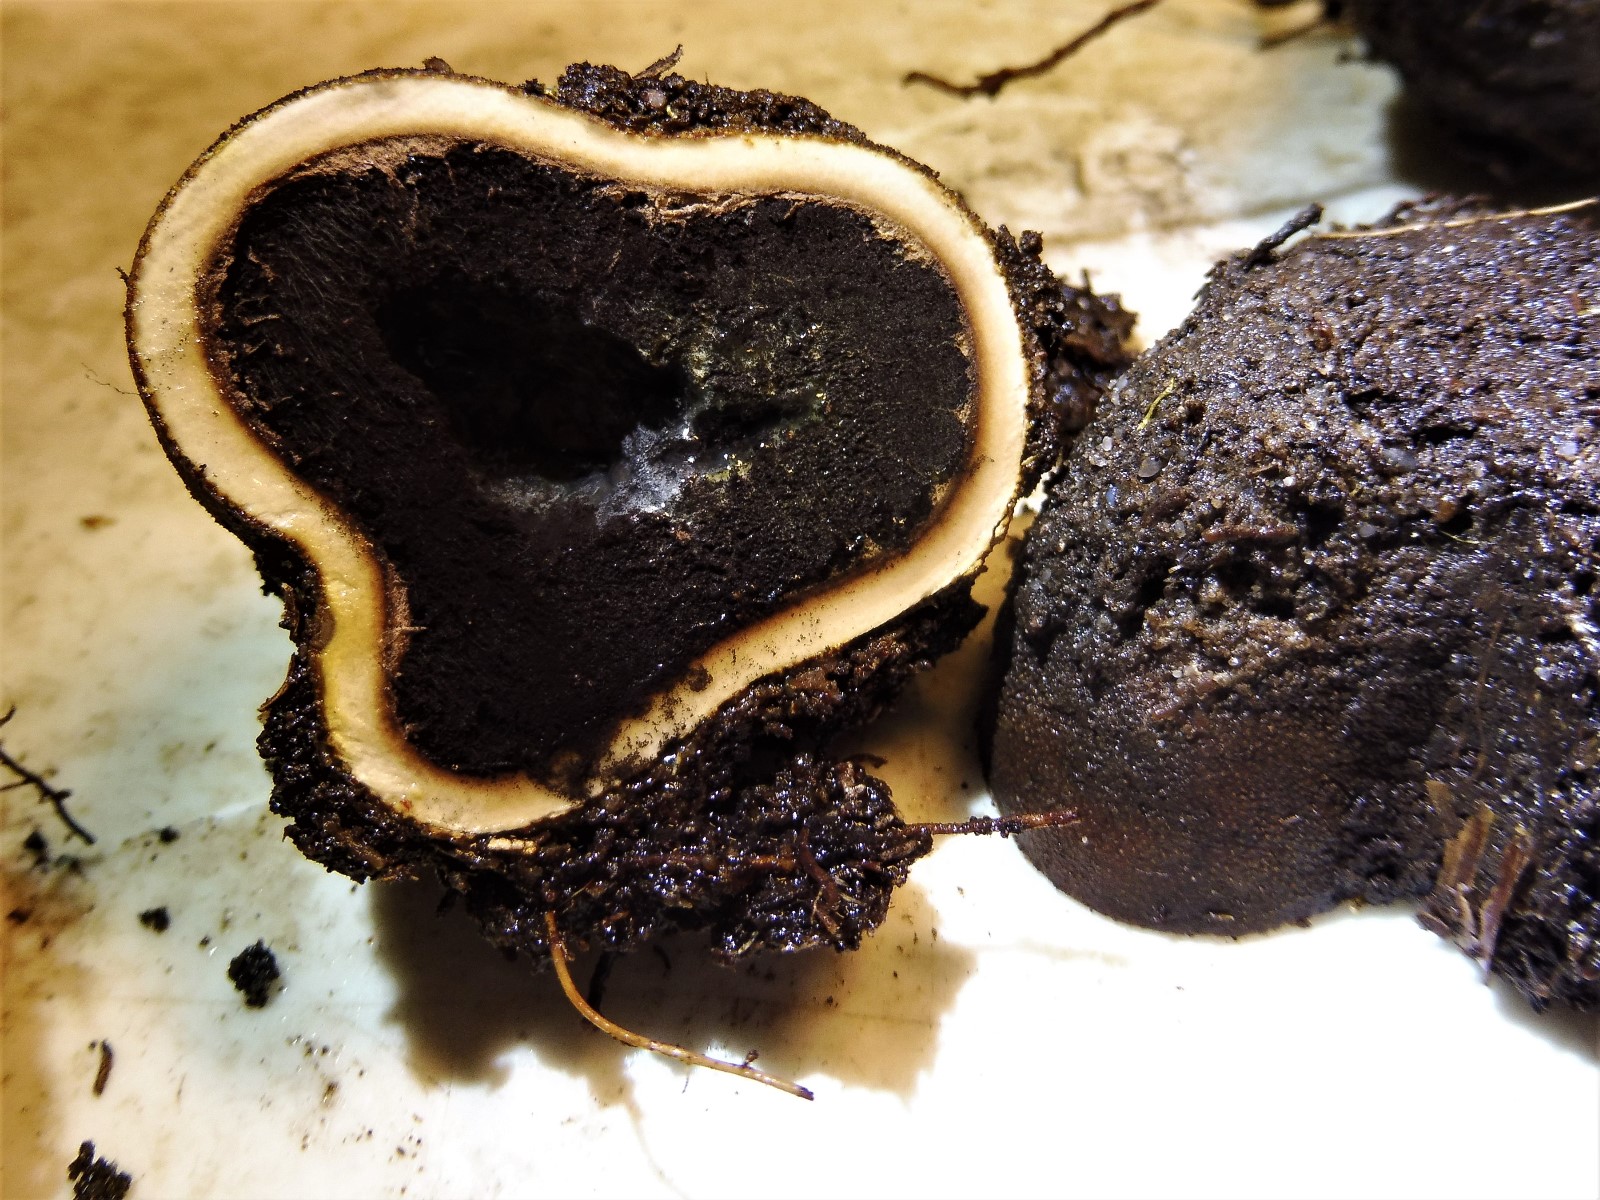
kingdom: Fungi
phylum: Ascomycota
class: Eurotiomycetes
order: Eurotiales
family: Elaphomycetaceae
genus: Elaphomyces
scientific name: Elaphomyces granulatus
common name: grynet hjortetrøffel
